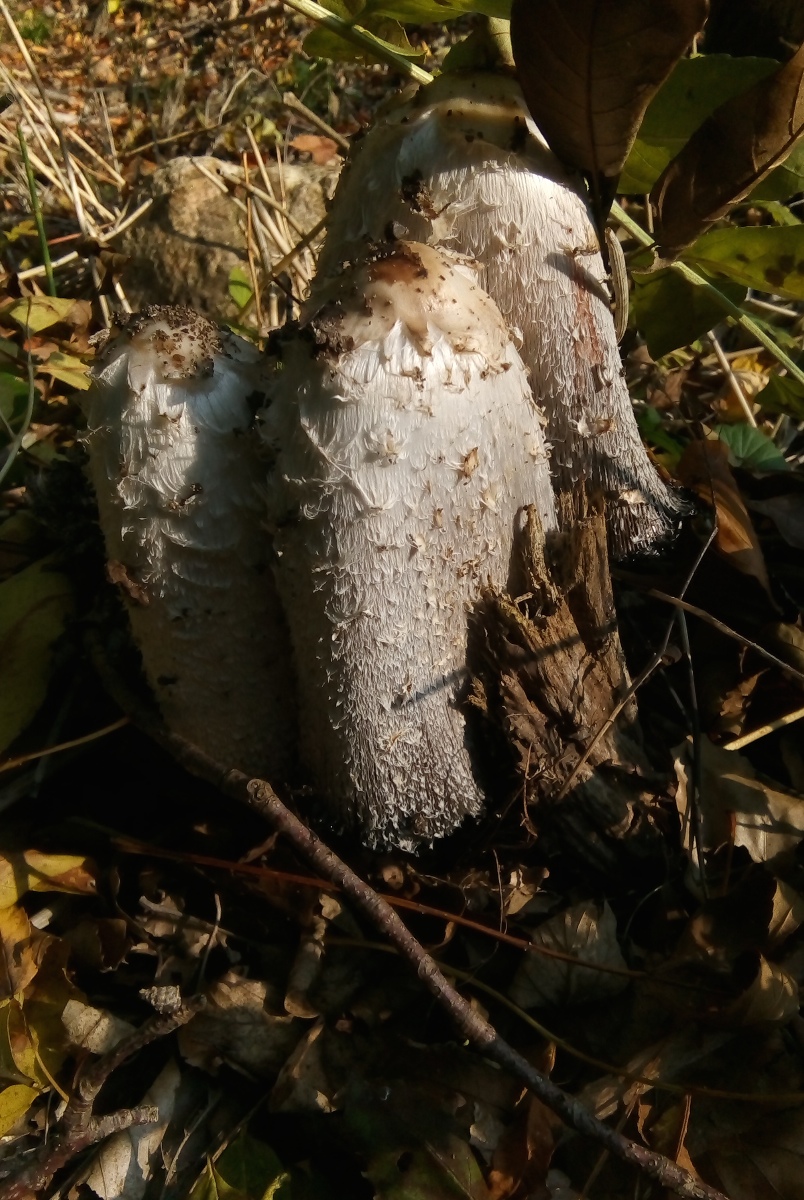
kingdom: Fungi
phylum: Basidiomycota
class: Agaricomycetes
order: Agaricales
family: Agaricaceae
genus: Coprinus
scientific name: Coprinus comatus
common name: stor parykhat
